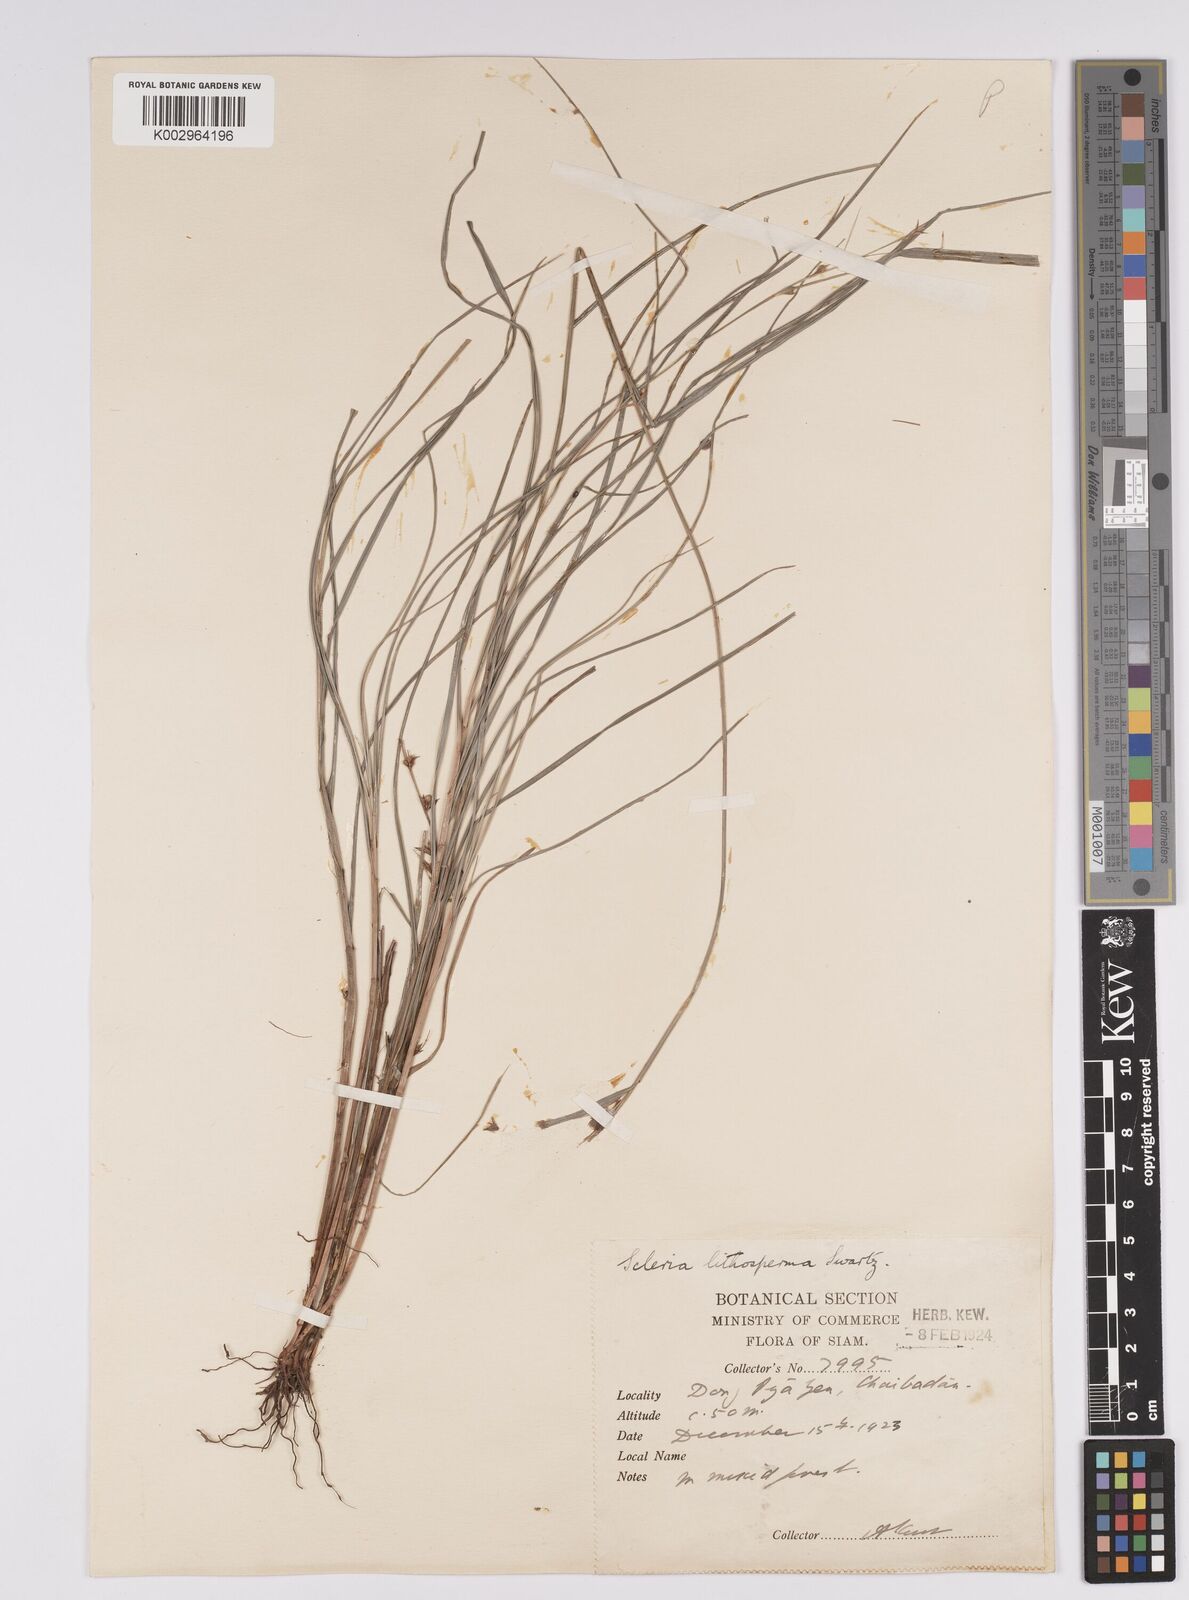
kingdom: Plantae
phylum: Tracheophyta
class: Liliopsida
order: Poales
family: Cyperaceae
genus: Scleria
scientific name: Scleria lithosperma
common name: Florida keys nut-rush
